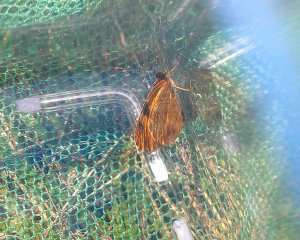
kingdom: Animalia
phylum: Arthropoda
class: Insecta
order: Lepidoptera
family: Nymphalidae
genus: Phyciodes
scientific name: Phyciodes tharos
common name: Northern Crescent
